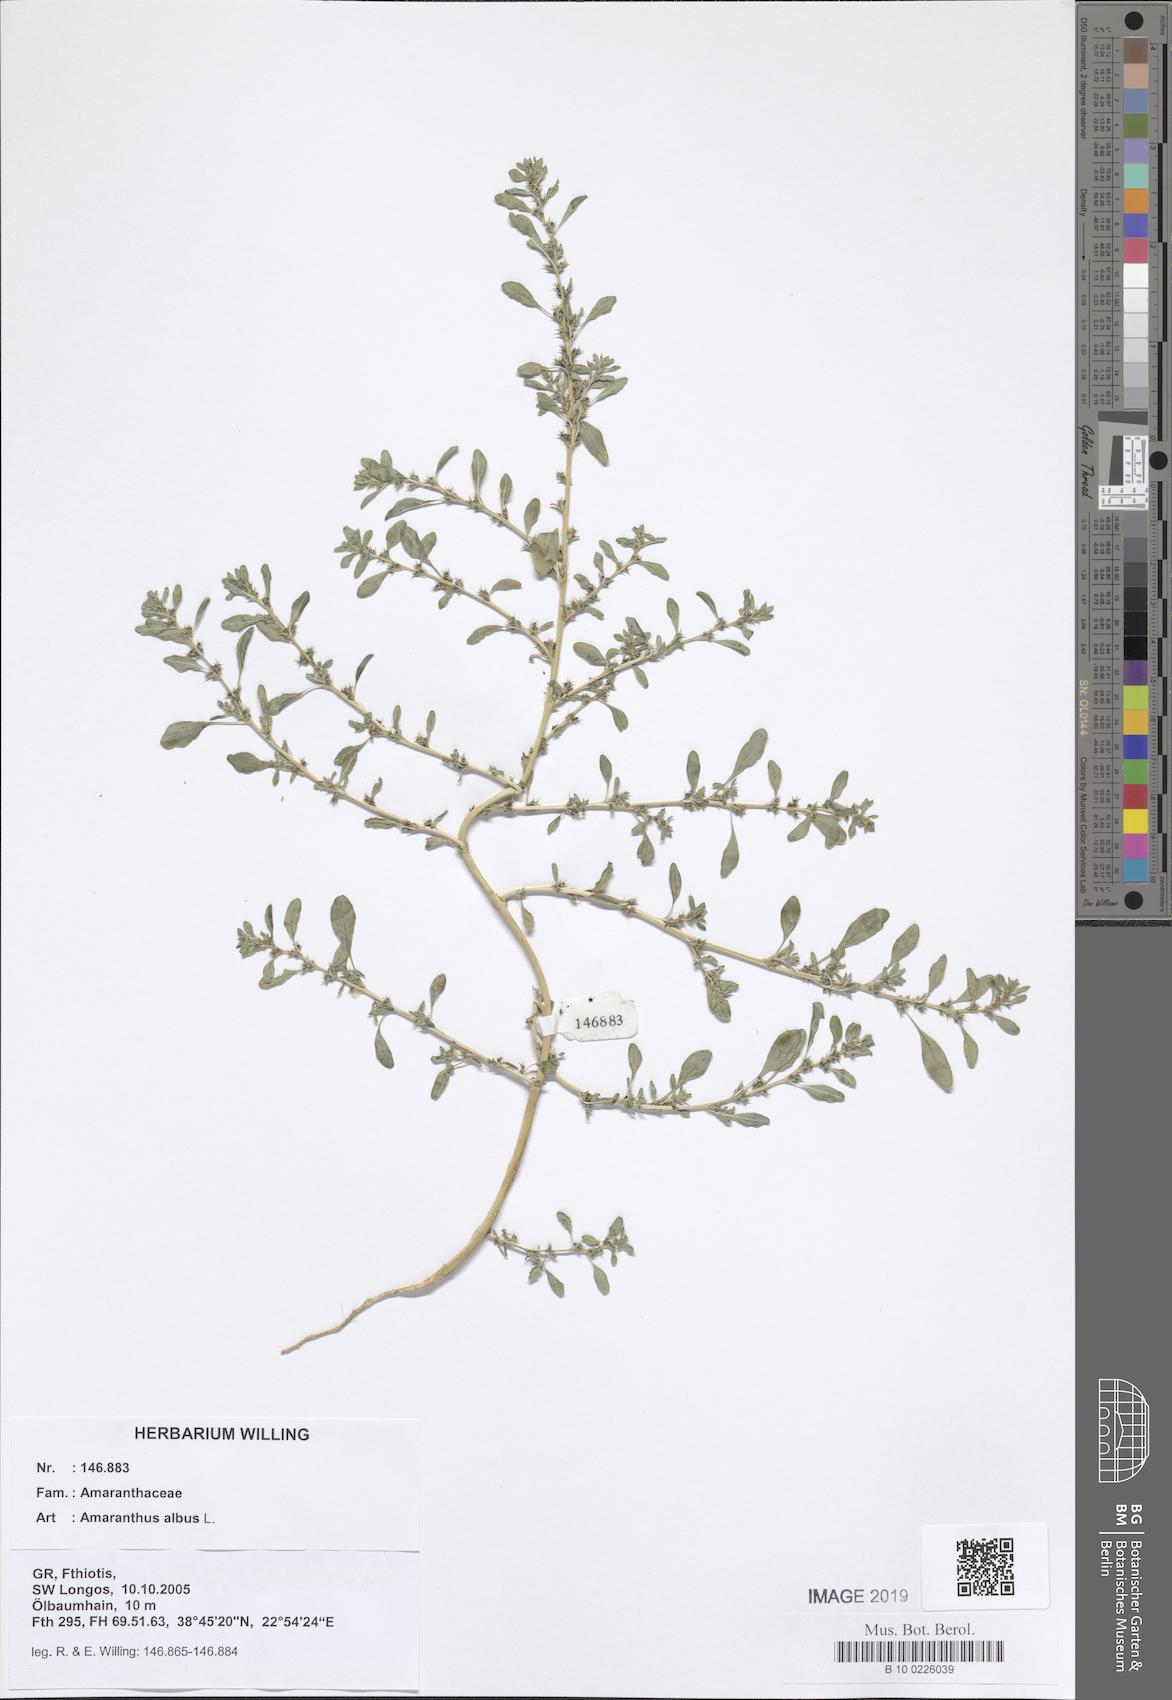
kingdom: Plantae
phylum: Tracheophyta
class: Magnoliopsida
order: Caryophyllales
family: Amaranthaceae
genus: Amaranthus
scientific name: Amaranthus albus
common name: White pigweed
